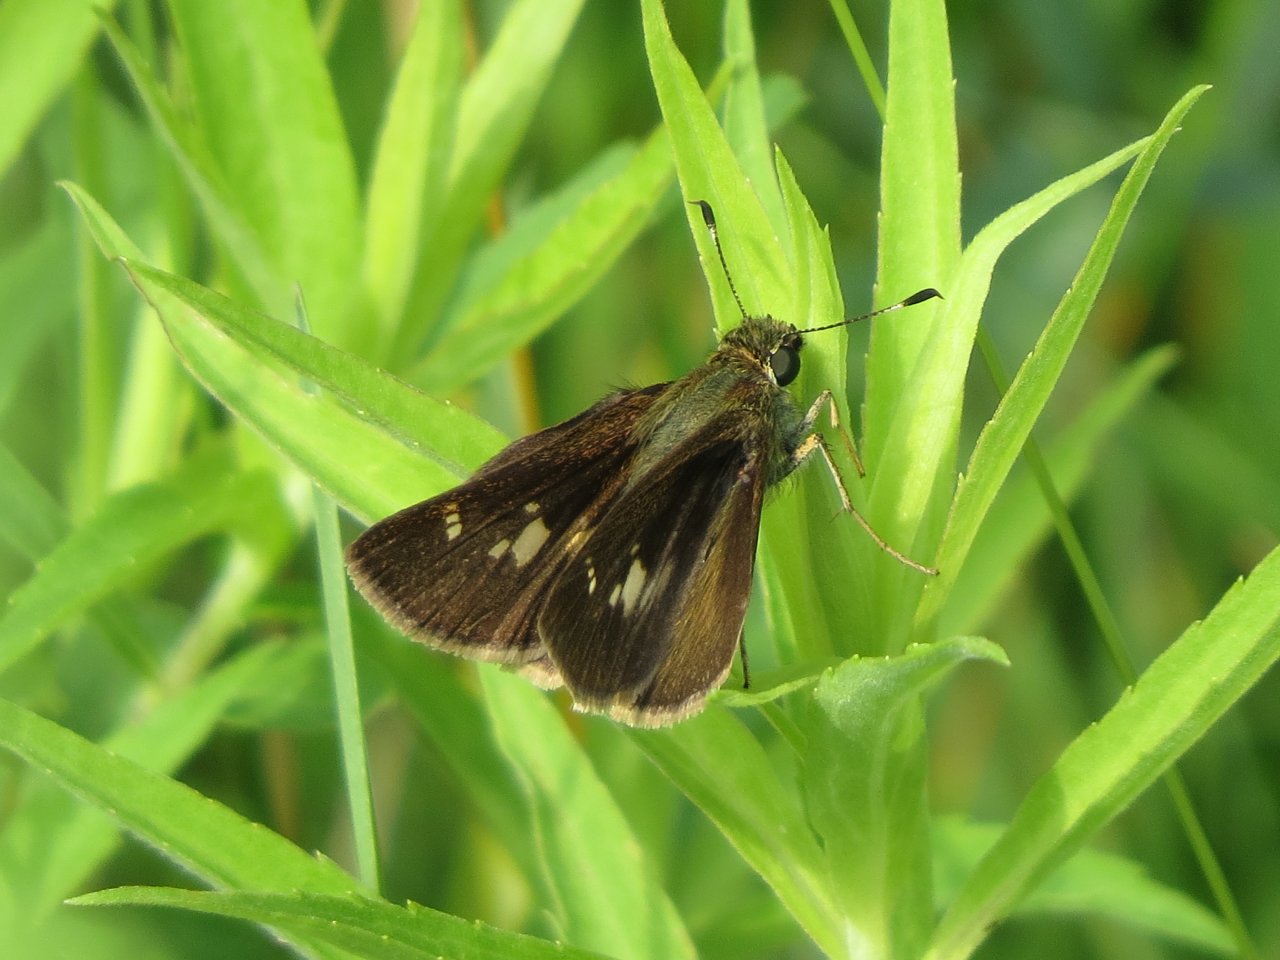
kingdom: Animalia
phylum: Arthropoda
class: Insecta
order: Lepidoptera
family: Hesperiidae
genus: Vernia
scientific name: Vernia verna
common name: Little Glassywing
